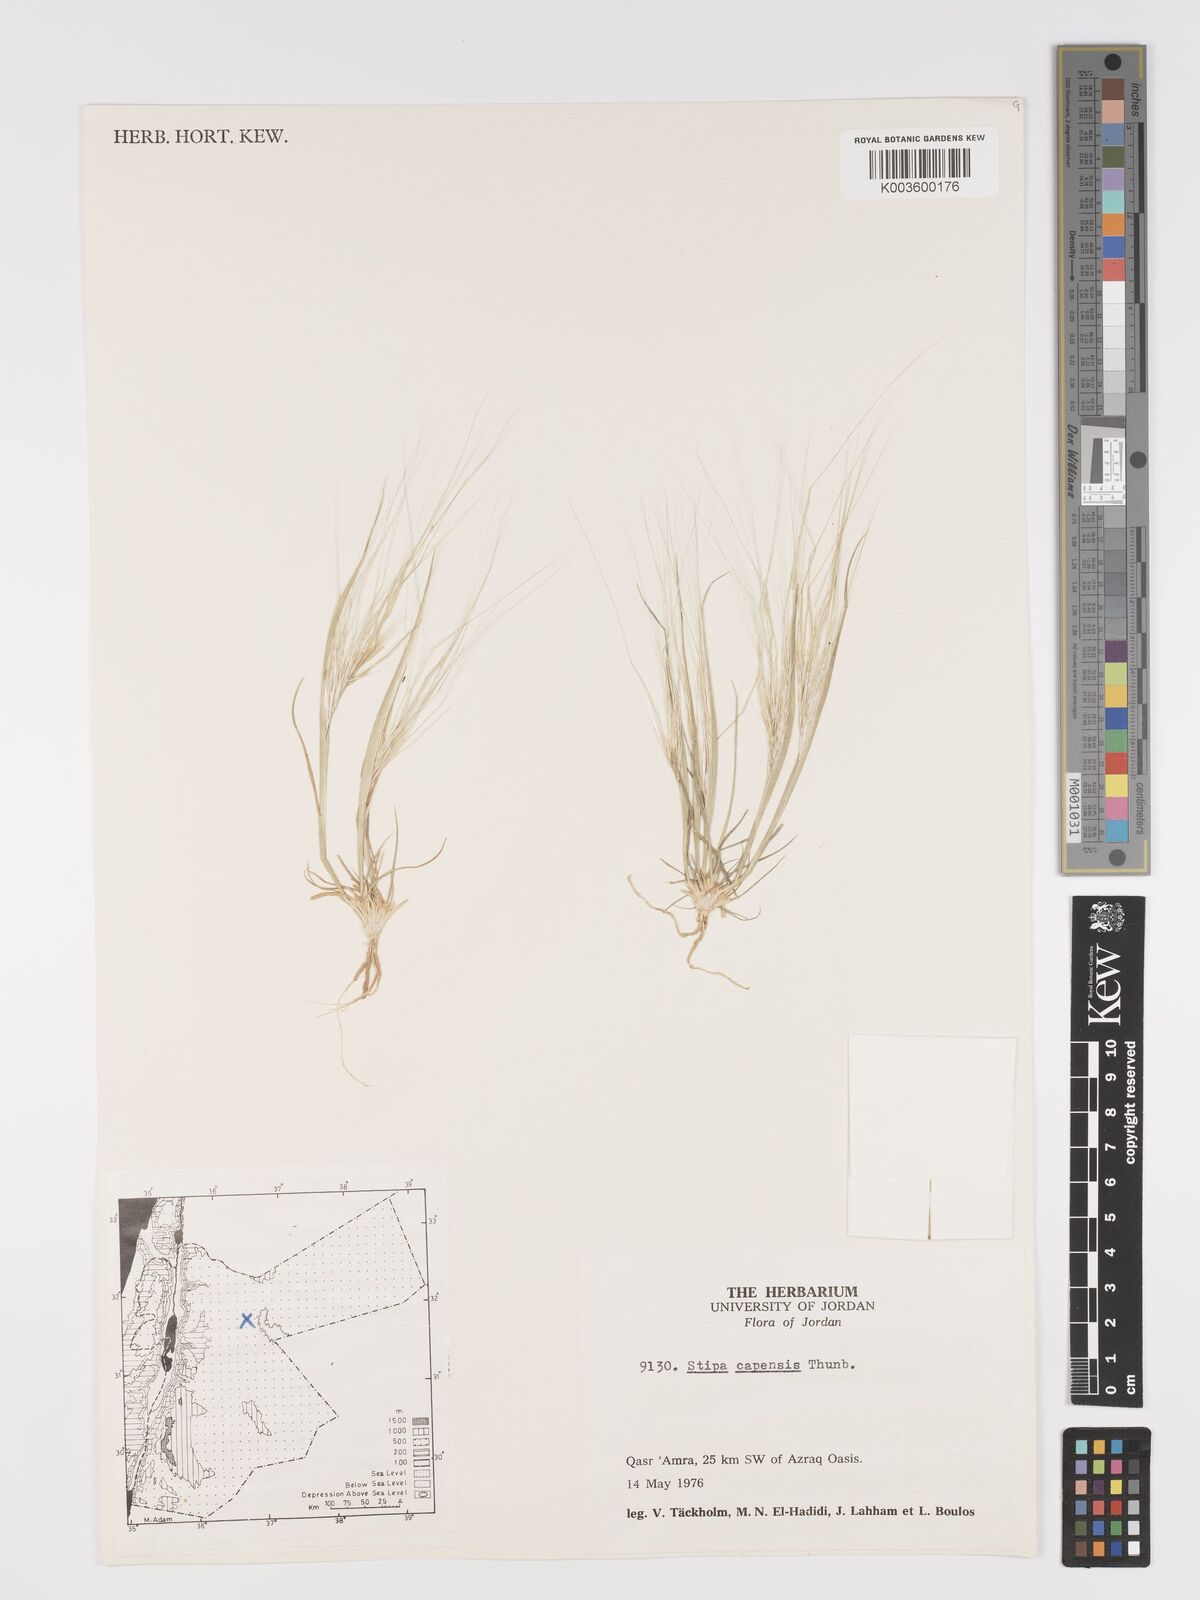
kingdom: Plantae
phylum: Tracheophyta
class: Liliopsida
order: Poales
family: Poaceae
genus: Stipellula
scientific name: Stipellula capensis
